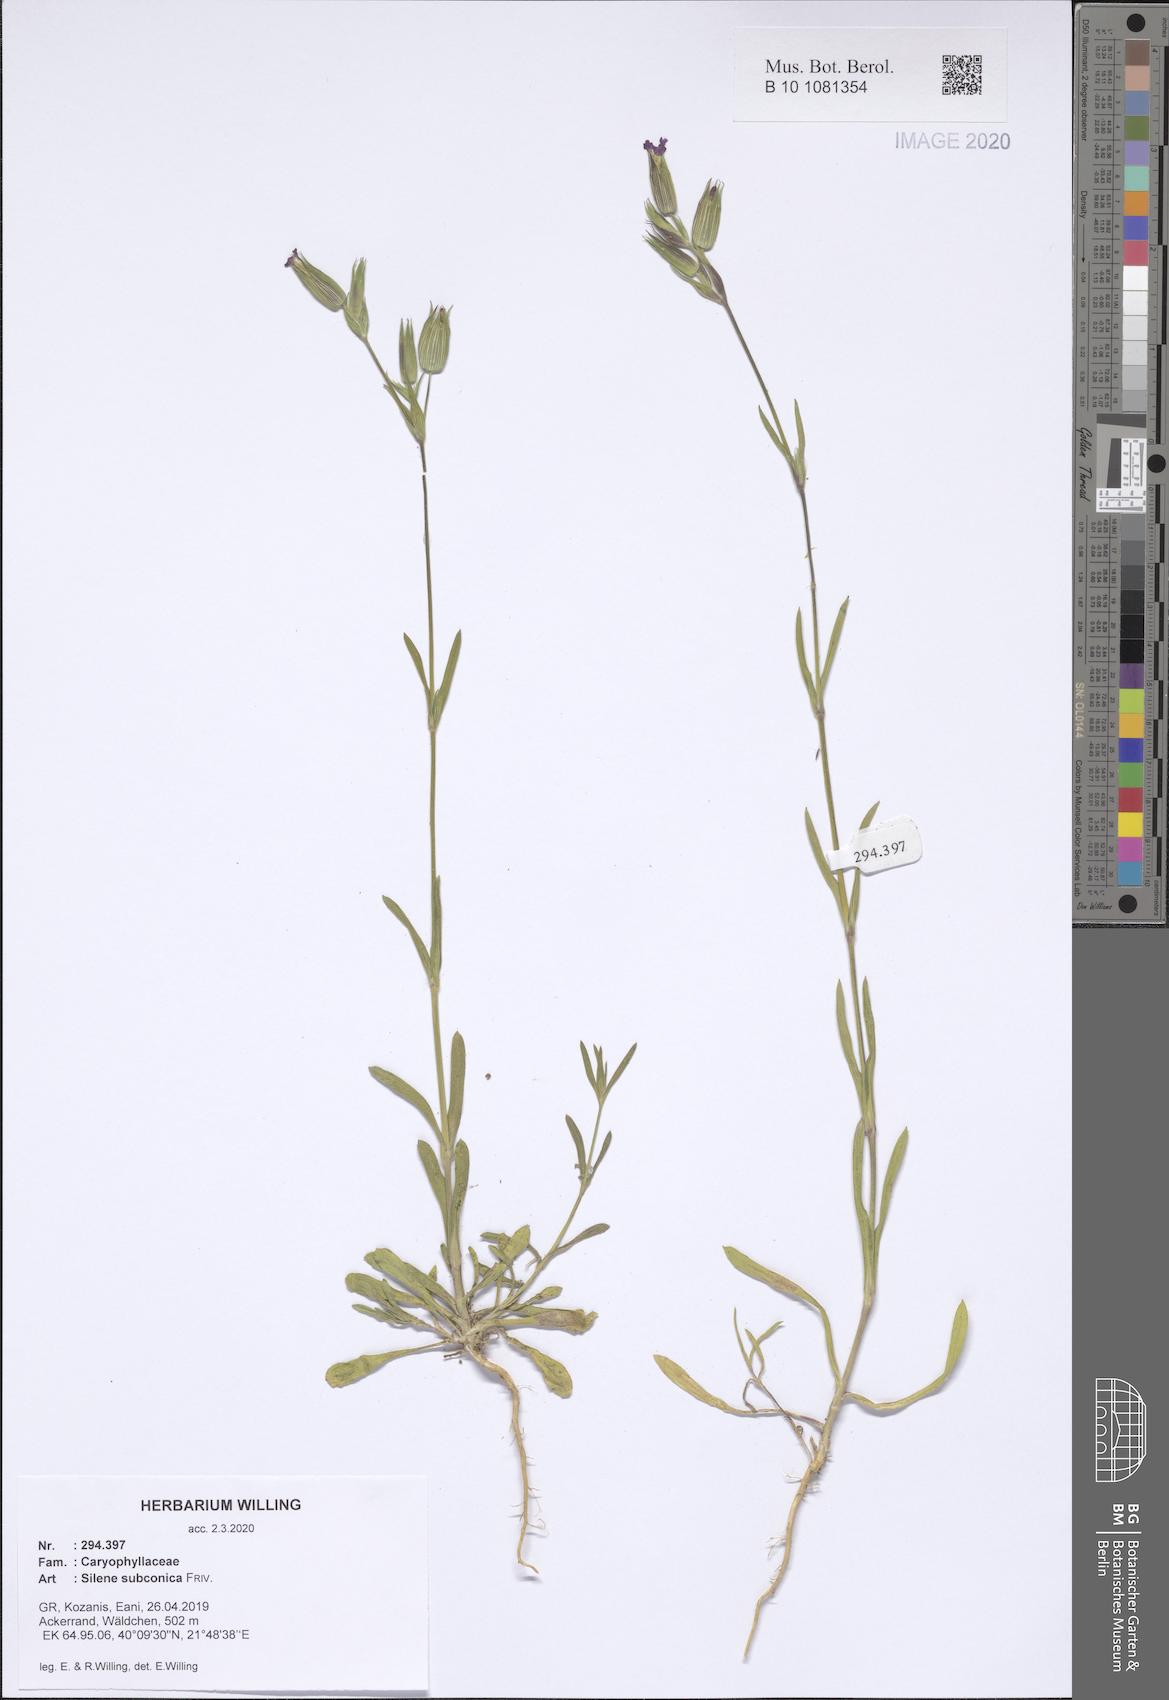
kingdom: Plantae
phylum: Tracheophyta
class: Magnoliopsida
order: Caryophyllales
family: Caryophyllaceae
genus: Silene
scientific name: Silene subconica
